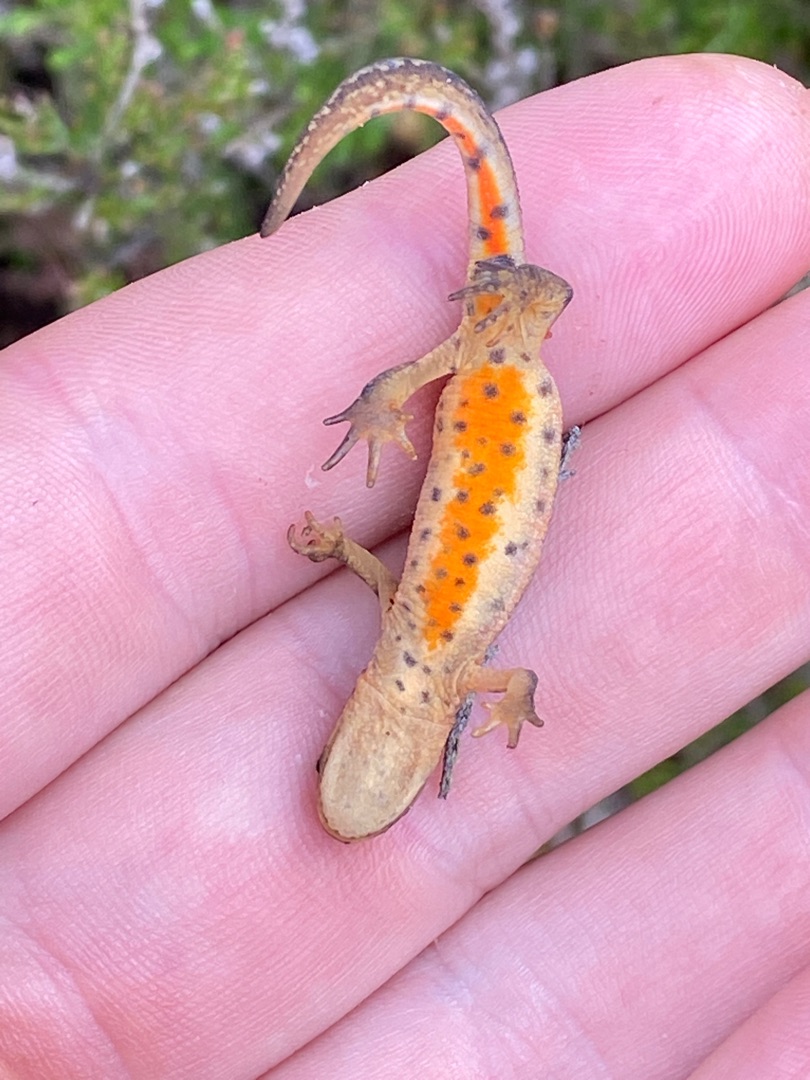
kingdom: Animalia
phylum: Chordata
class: Amphibia
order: Caudata
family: Salamandridae
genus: Lissotriton
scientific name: Lissotriton vulgaris
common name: Lille vandsalamander
